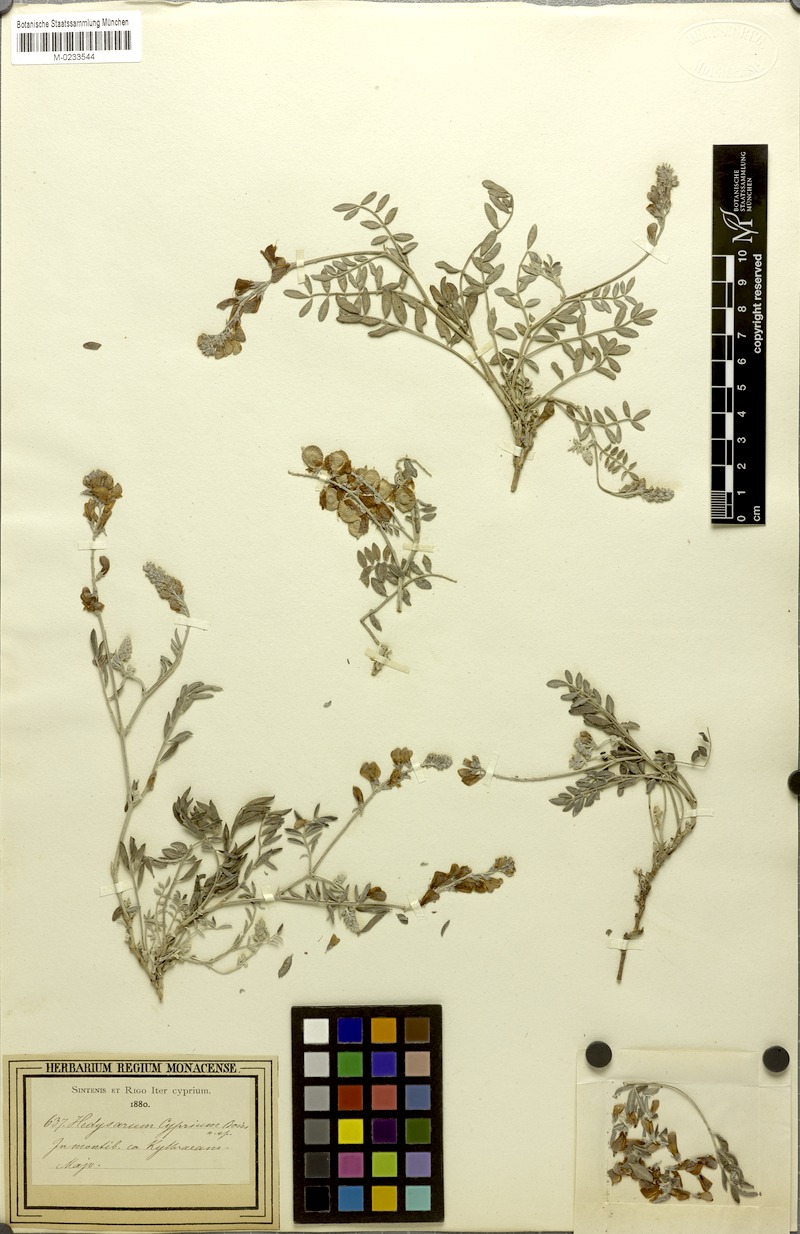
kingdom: Plantae
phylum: Tracheophyta
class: Magnoliopsida
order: Fabales
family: Fabaceae
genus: Hedysarum
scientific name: Hedysarum cyprium
